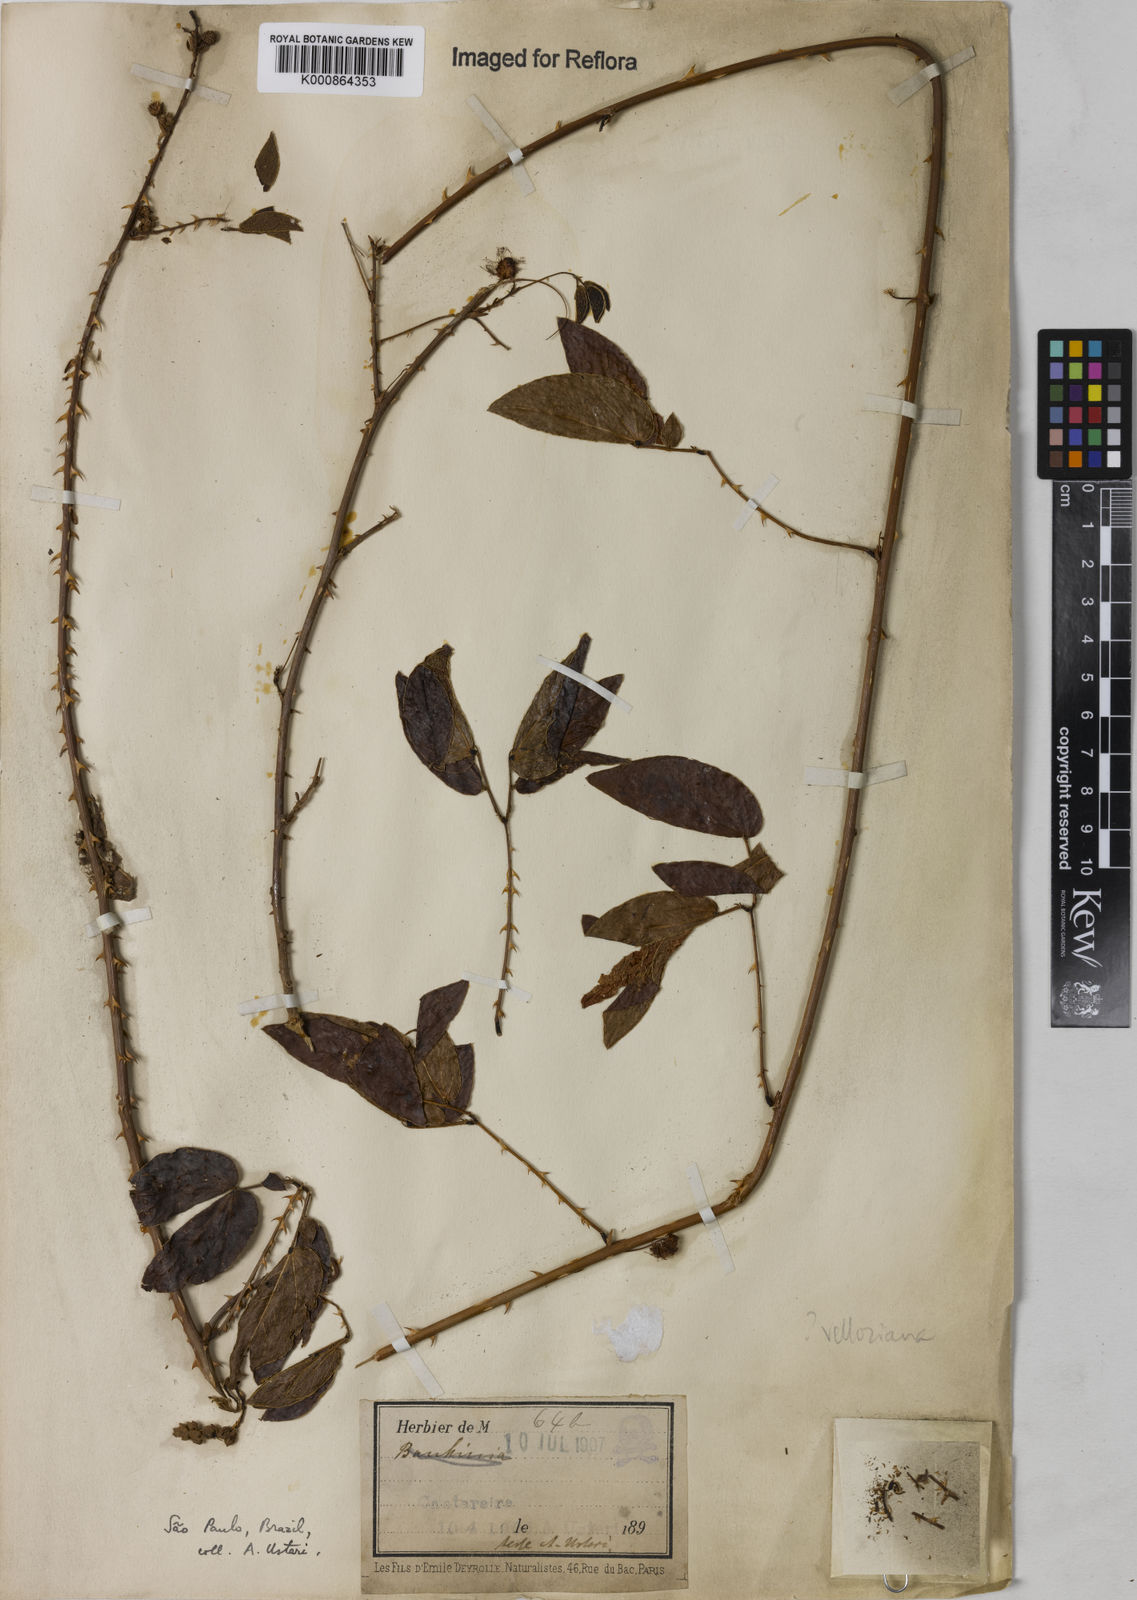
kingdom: Plantae
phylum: Tracheophyta
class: Magnoliopsida
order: Fabales
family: Fabaceae
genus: Mimosa
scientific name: Mimosa velloziana
